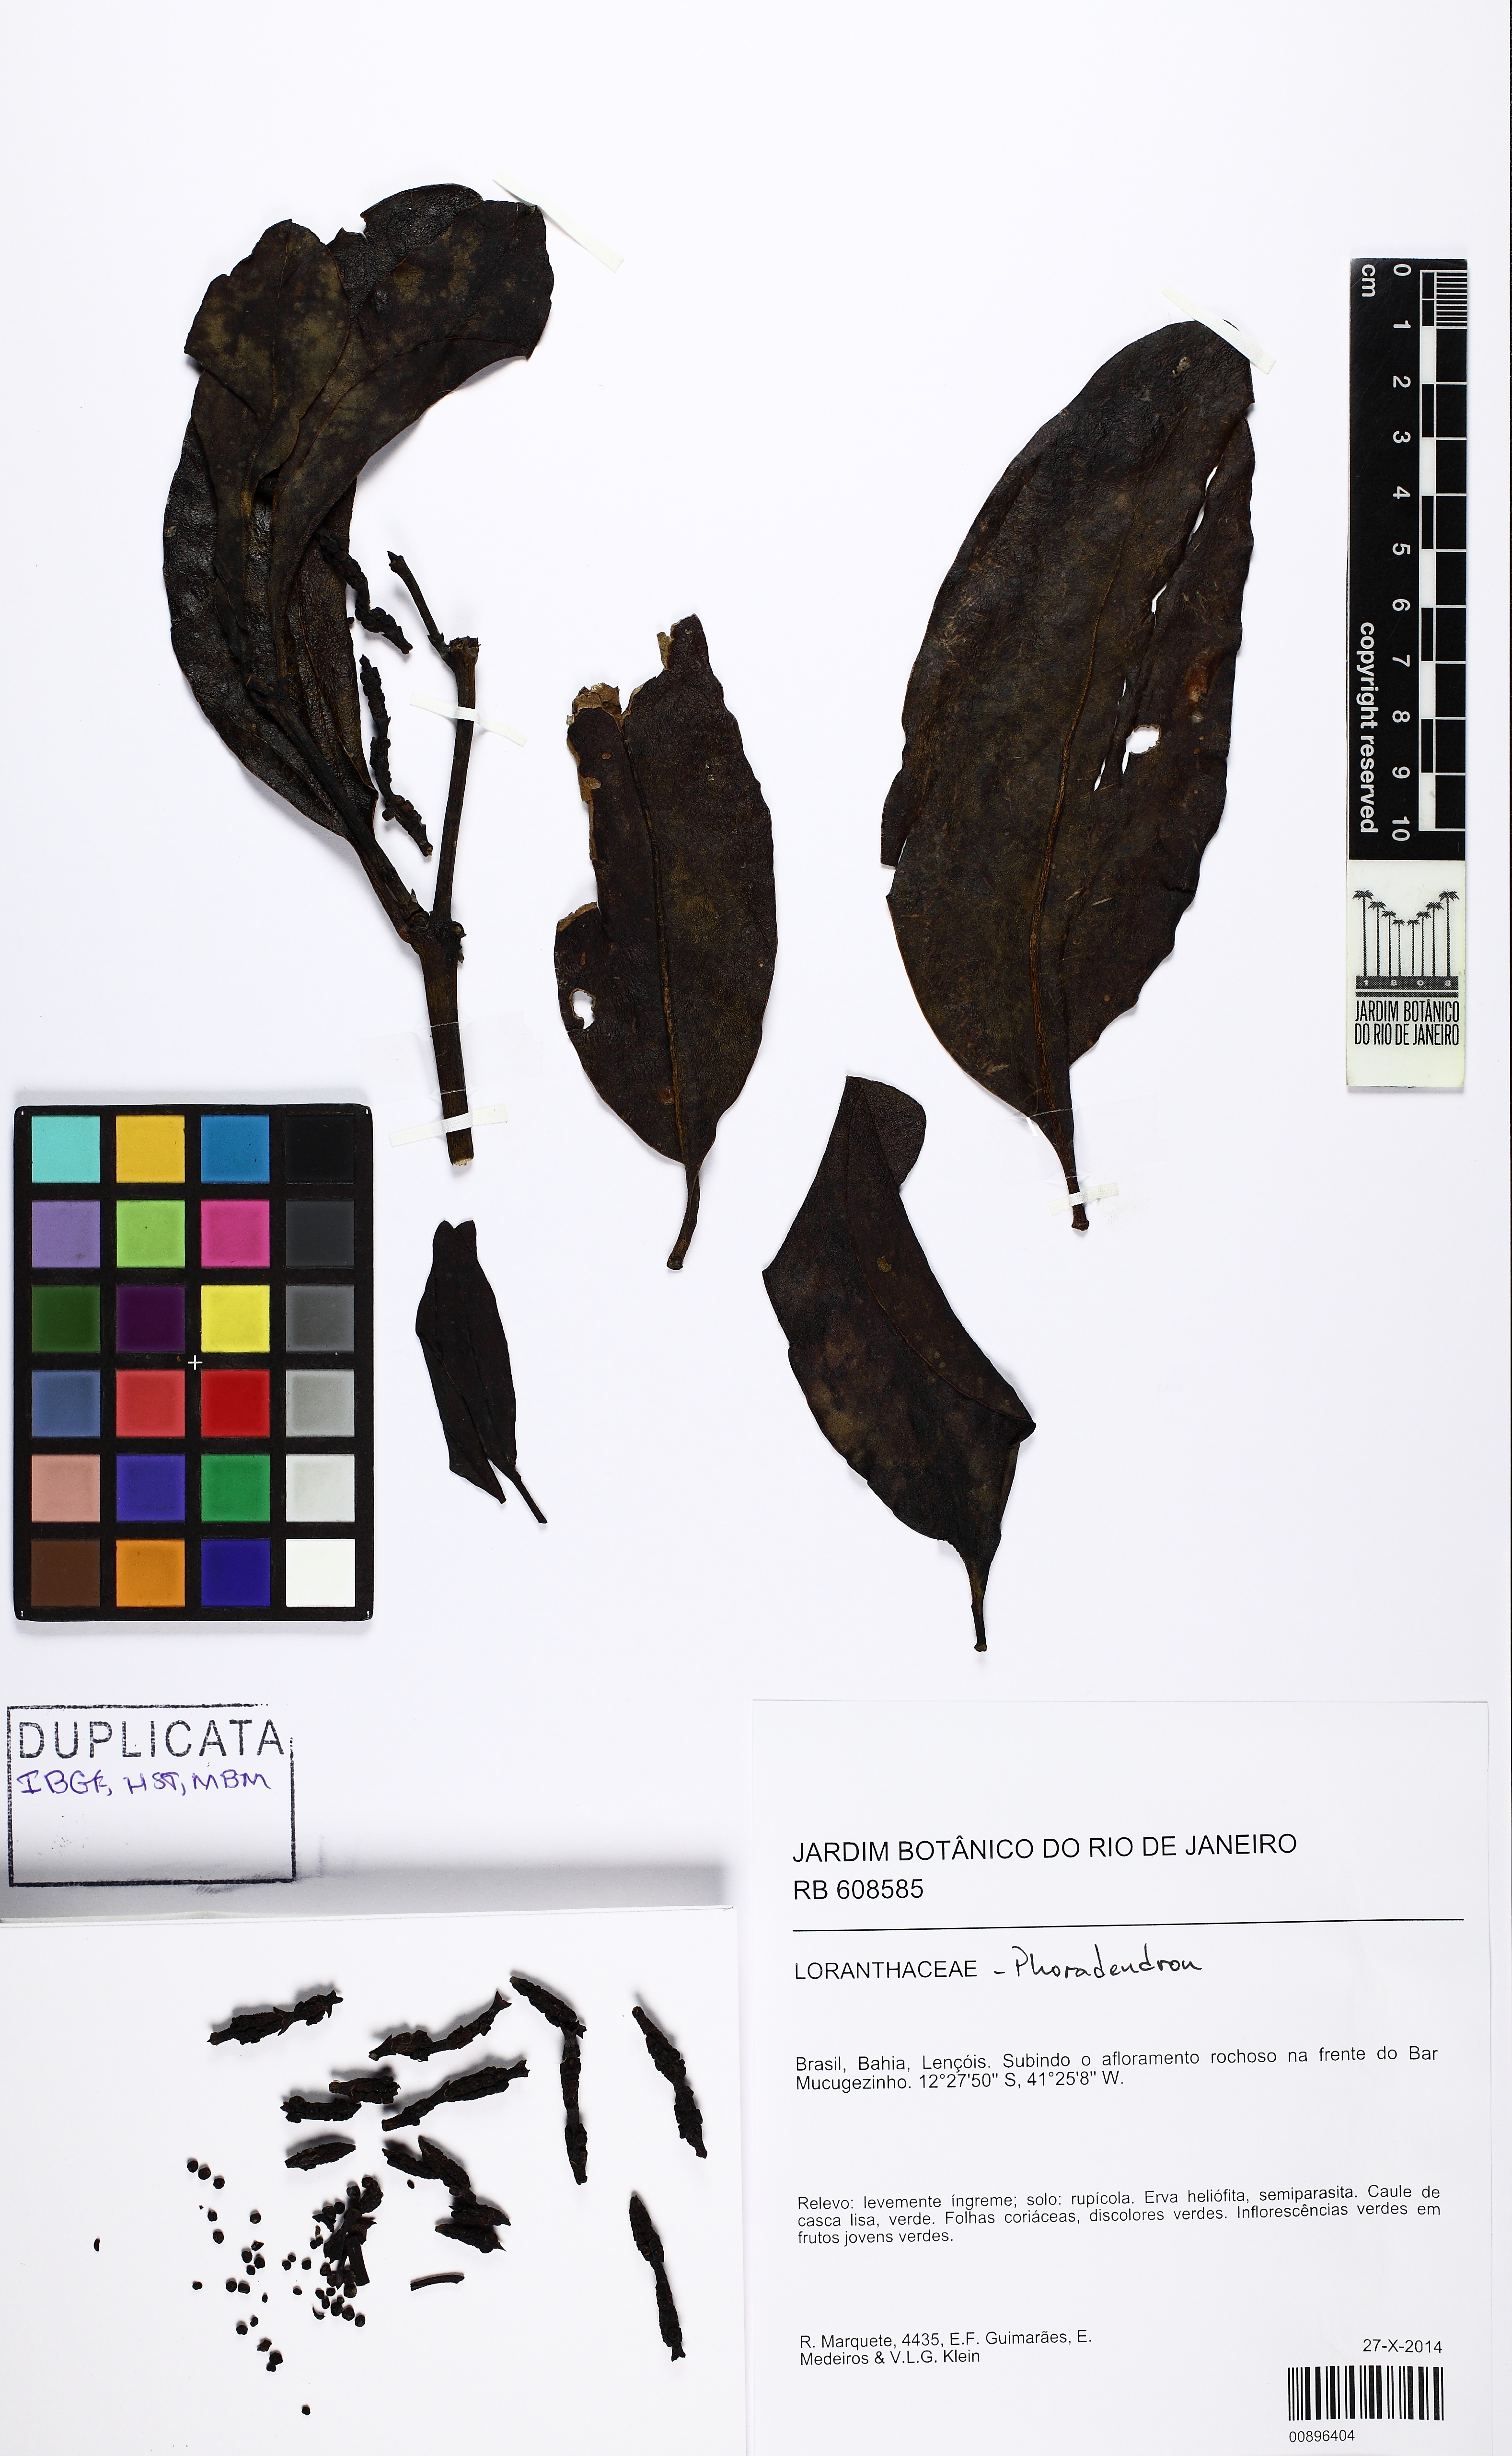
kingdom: Plantae
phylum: Tracheophyta
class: Magnoliopsida
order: Santalales
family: Viscaceae
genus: Phoradendron
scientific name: Phoradendron hexastichum
